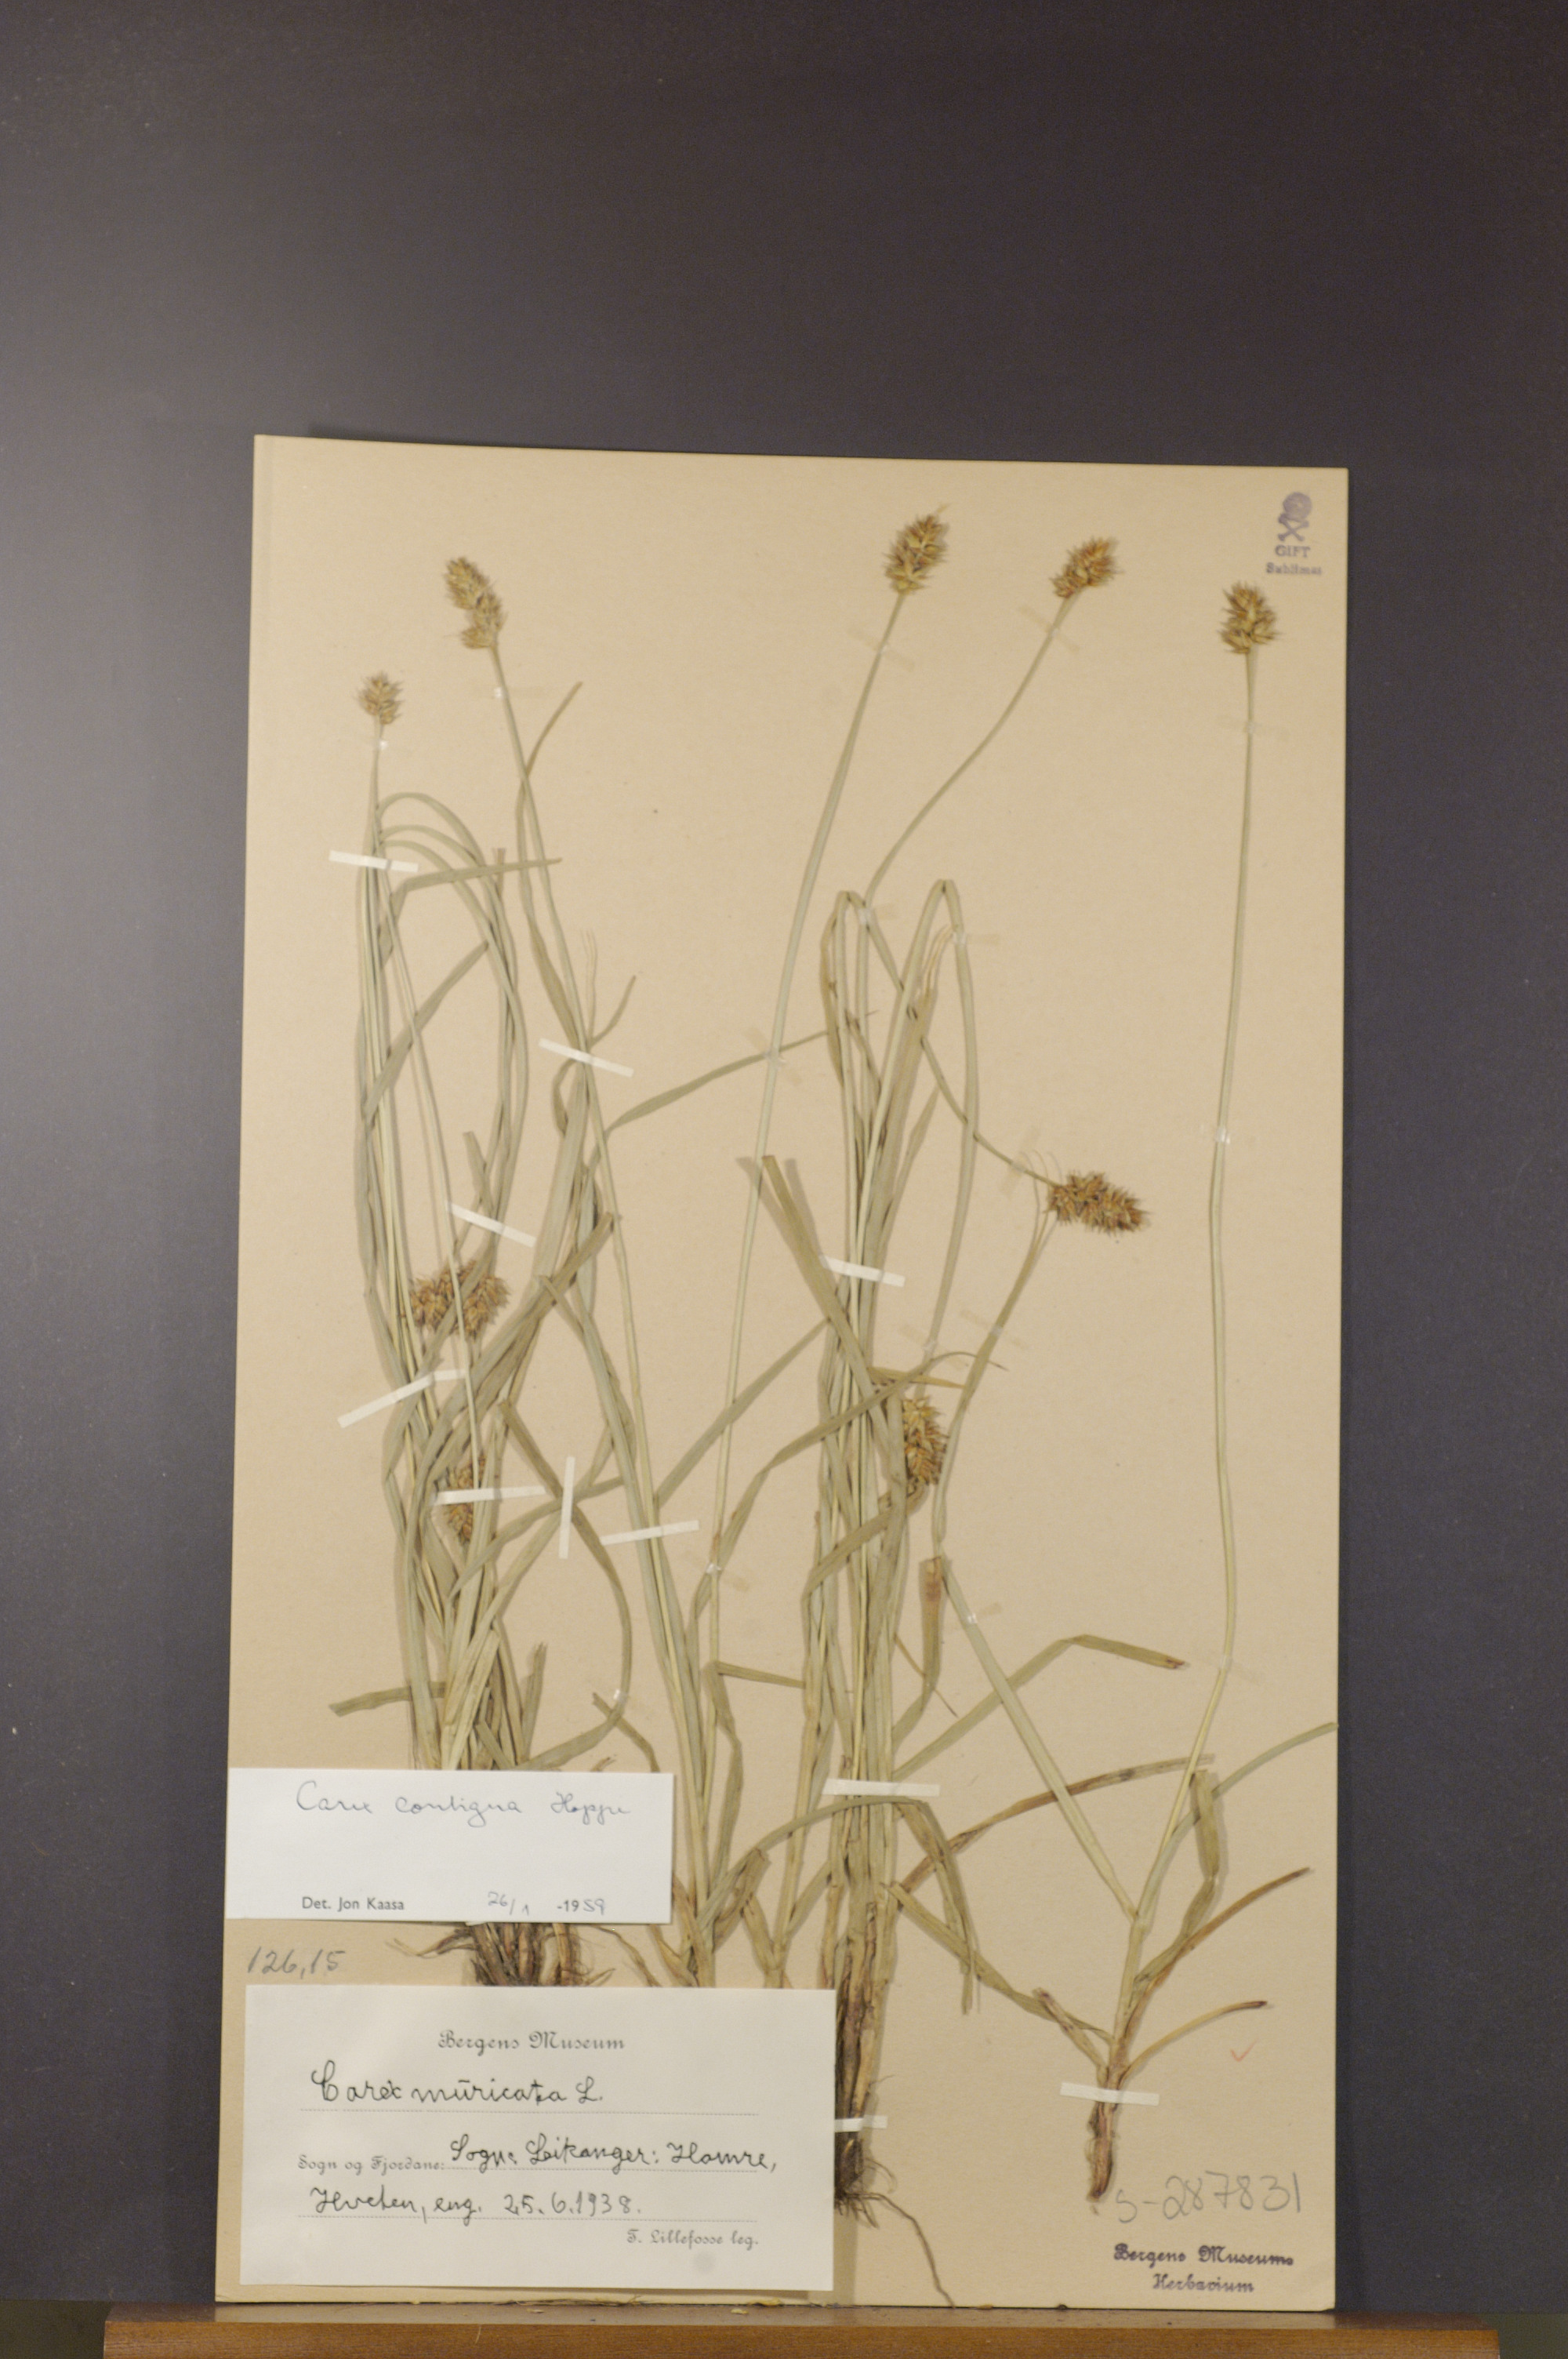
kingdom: Plantae
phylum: Tracheophyta
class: Liliopsida
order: Poales
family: Cyperaceae
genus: Carex
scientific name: Carex spicata
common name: Spiked sedge
